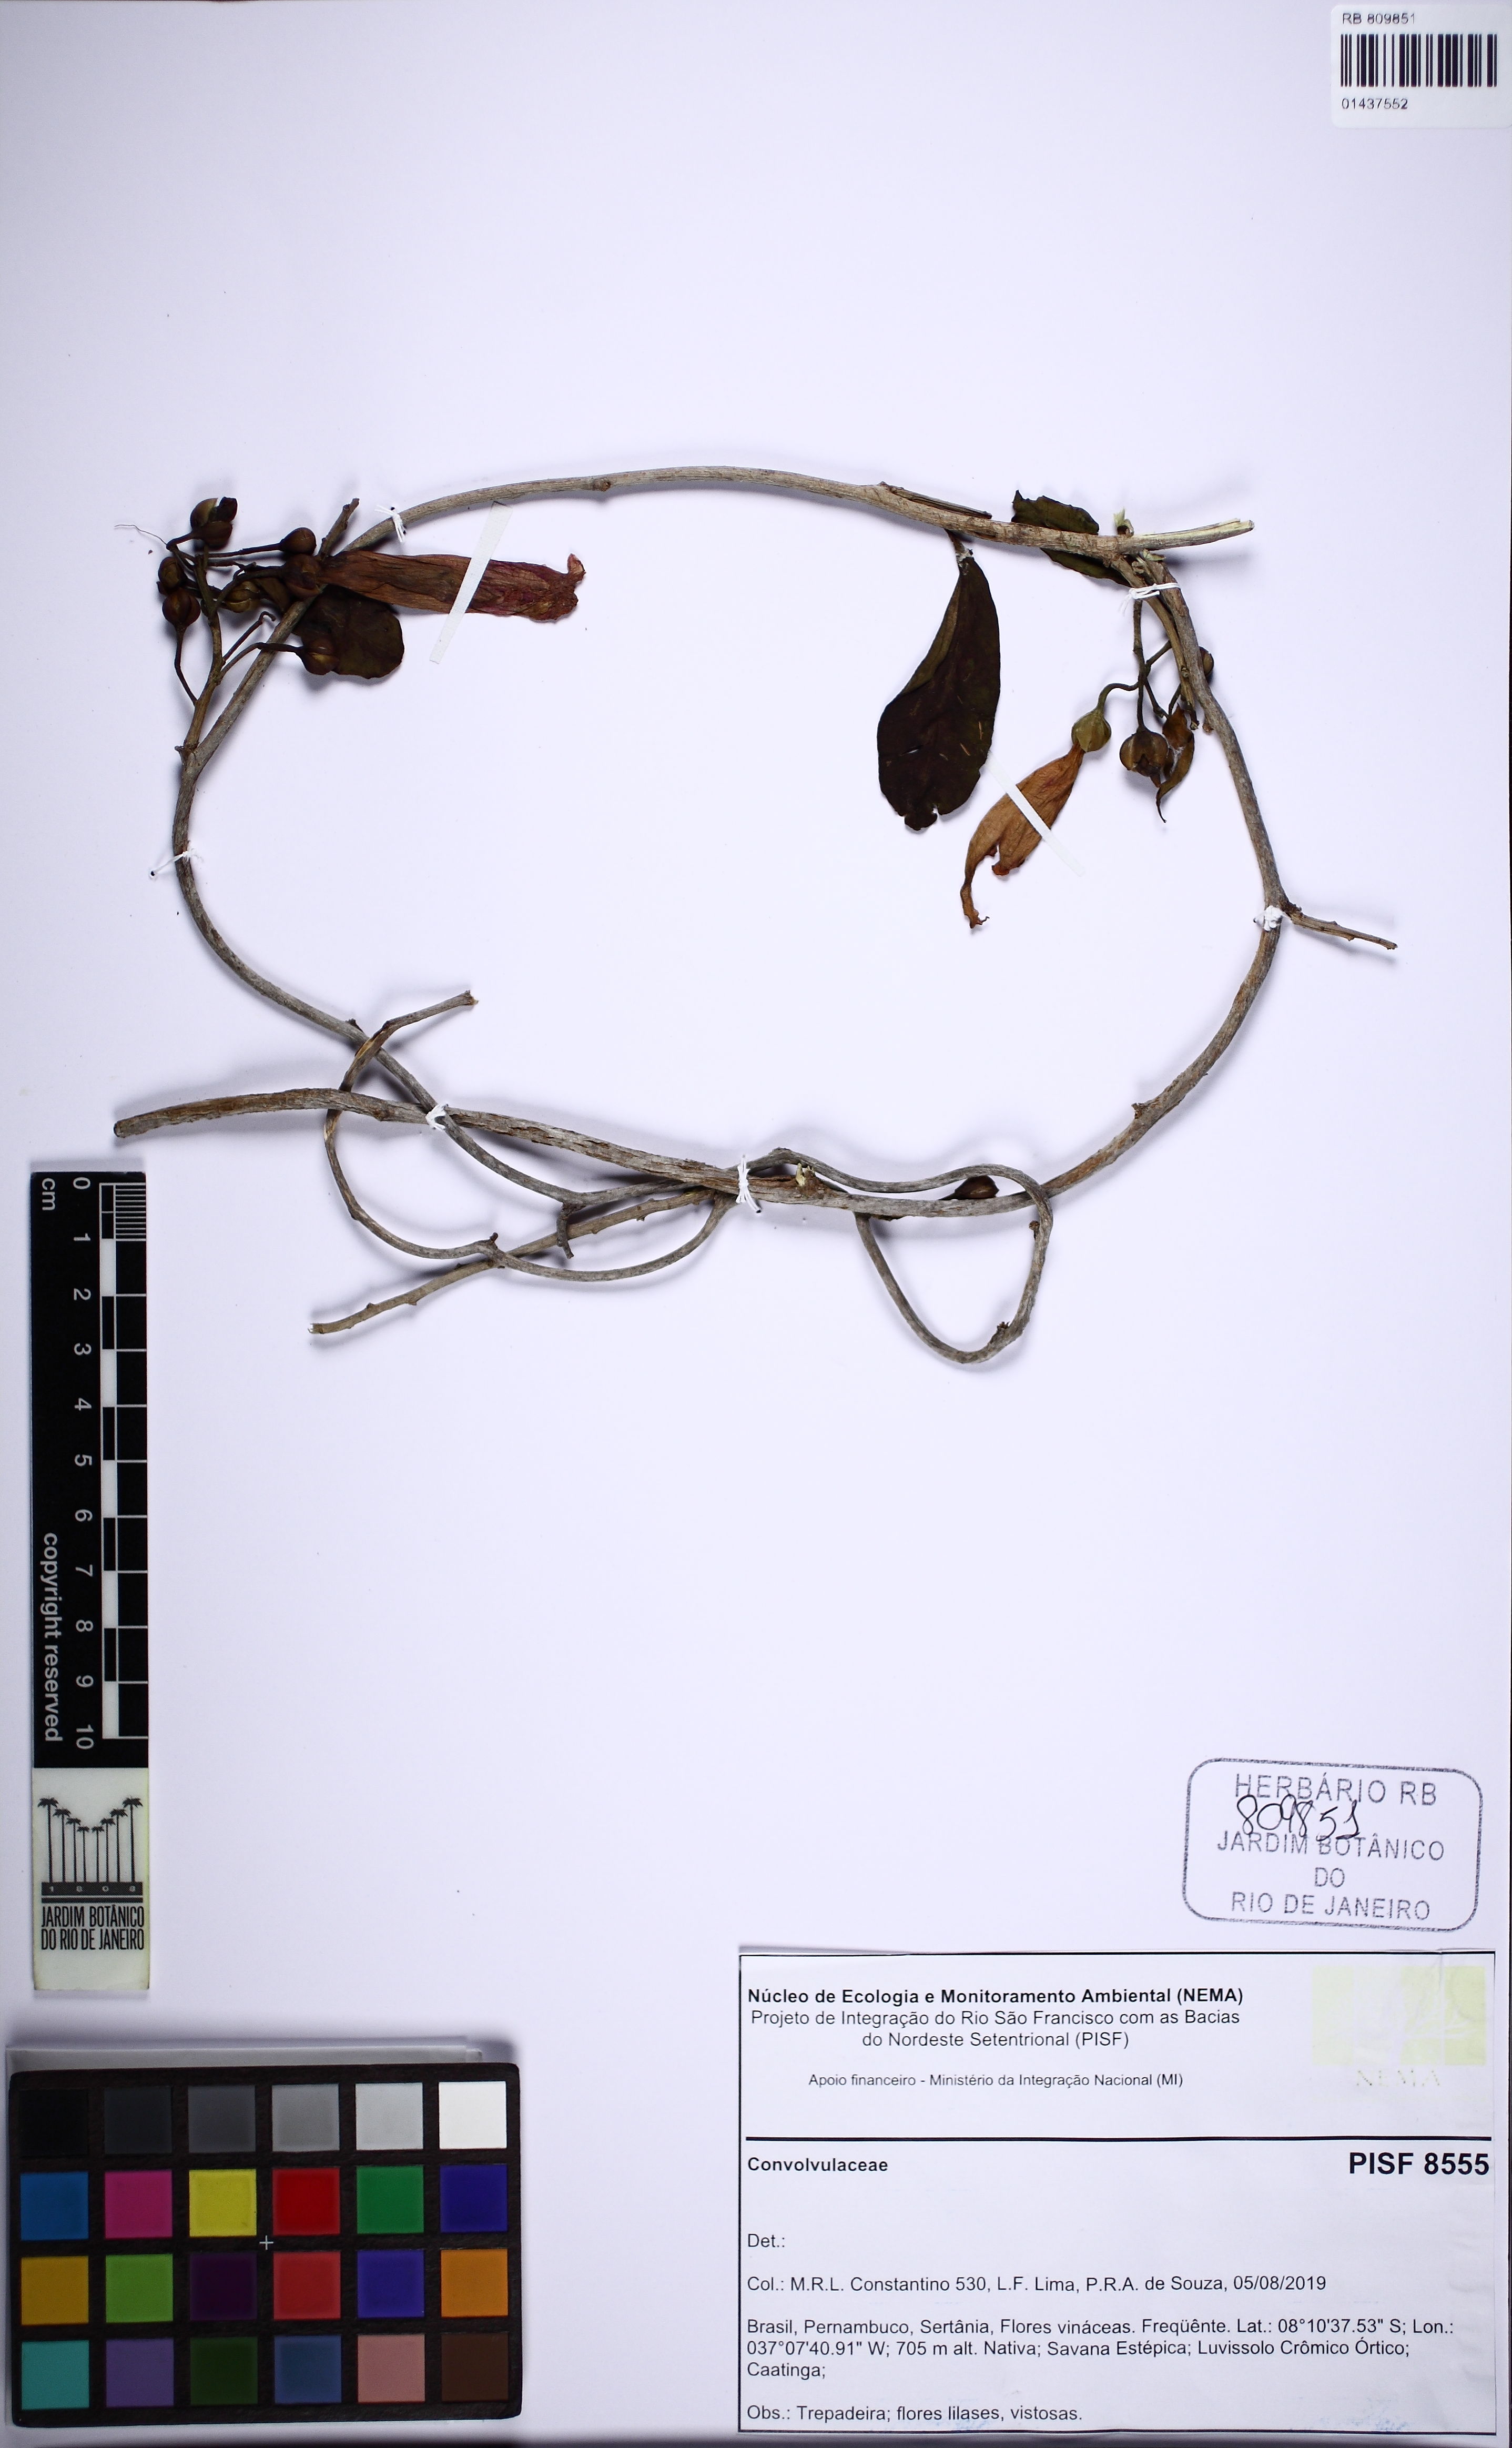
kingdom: Plantae
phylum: Tracheophyta
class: Magnoliopsida
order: Solanales
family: Convolvulaceae
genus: Ipomoea
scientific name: Ipomoea pintoi
